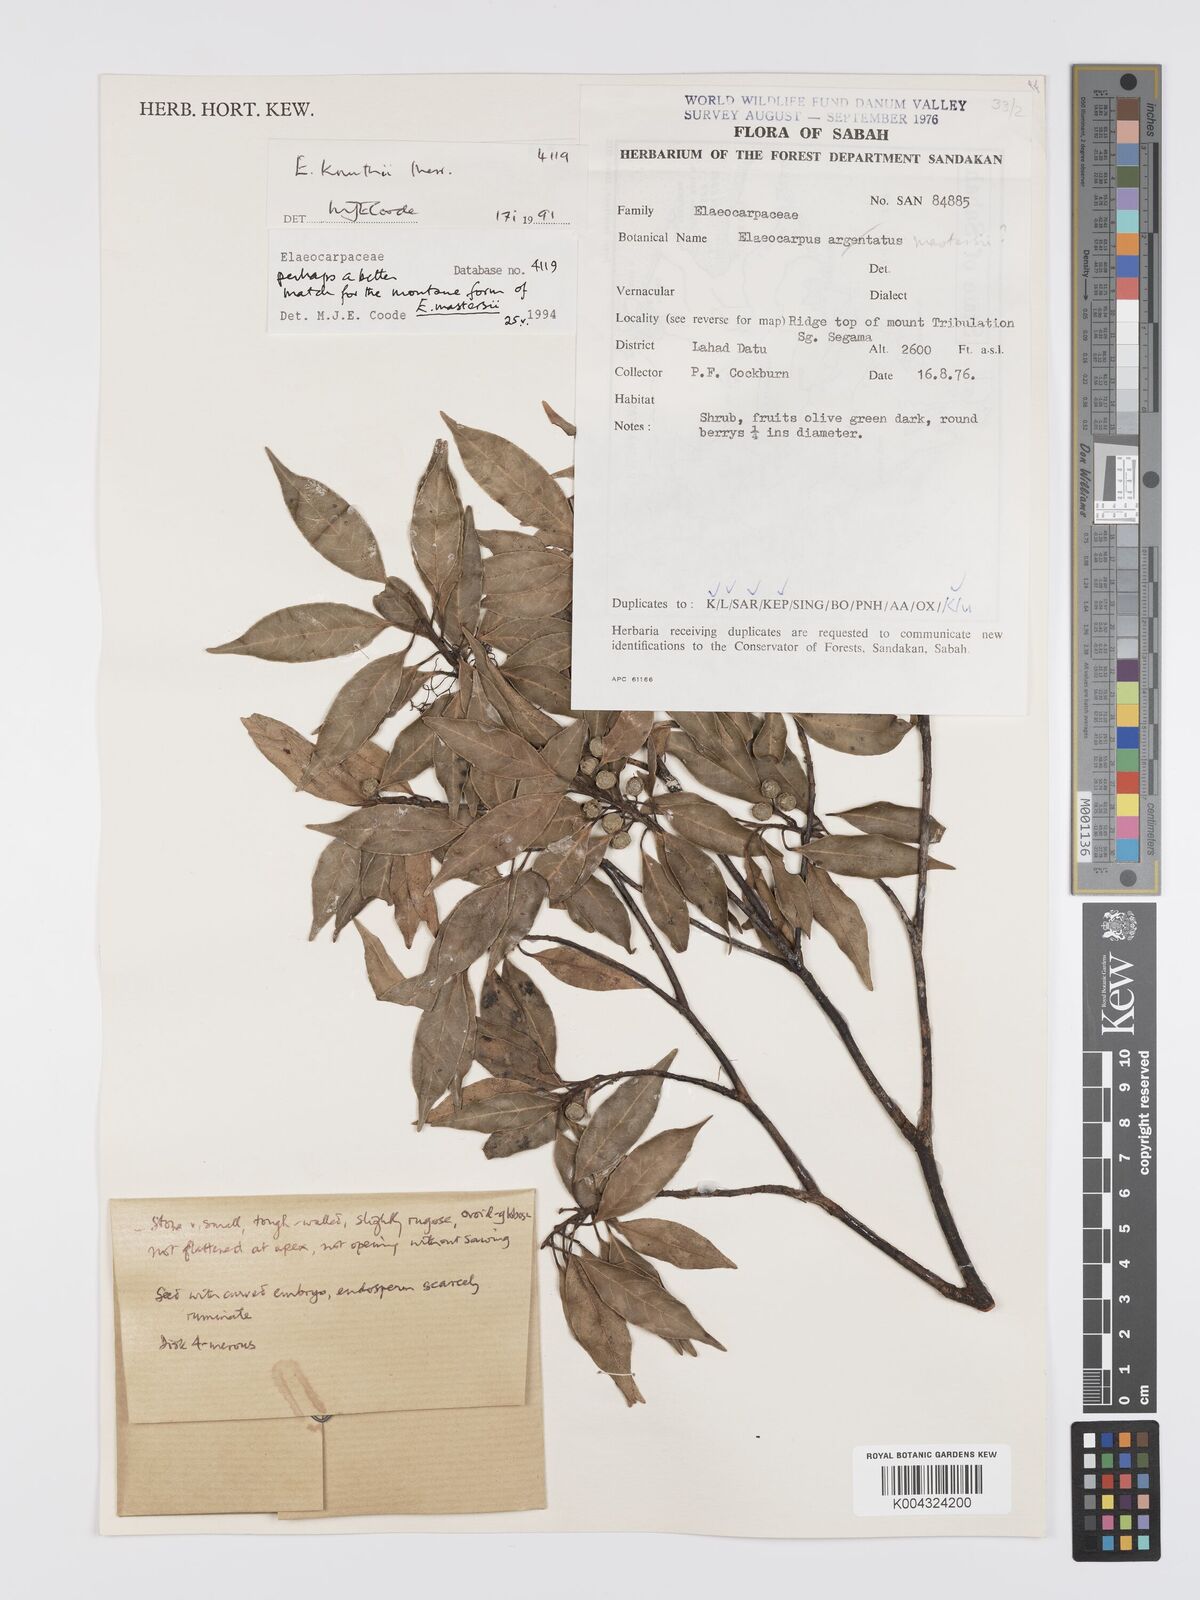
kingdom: Plantae
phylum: Tracheophyta
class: Magnoliopsida
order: Oxalidales
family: Elaeocarpaceae
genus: Elaeocarpus
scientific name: Elaeocarpus
